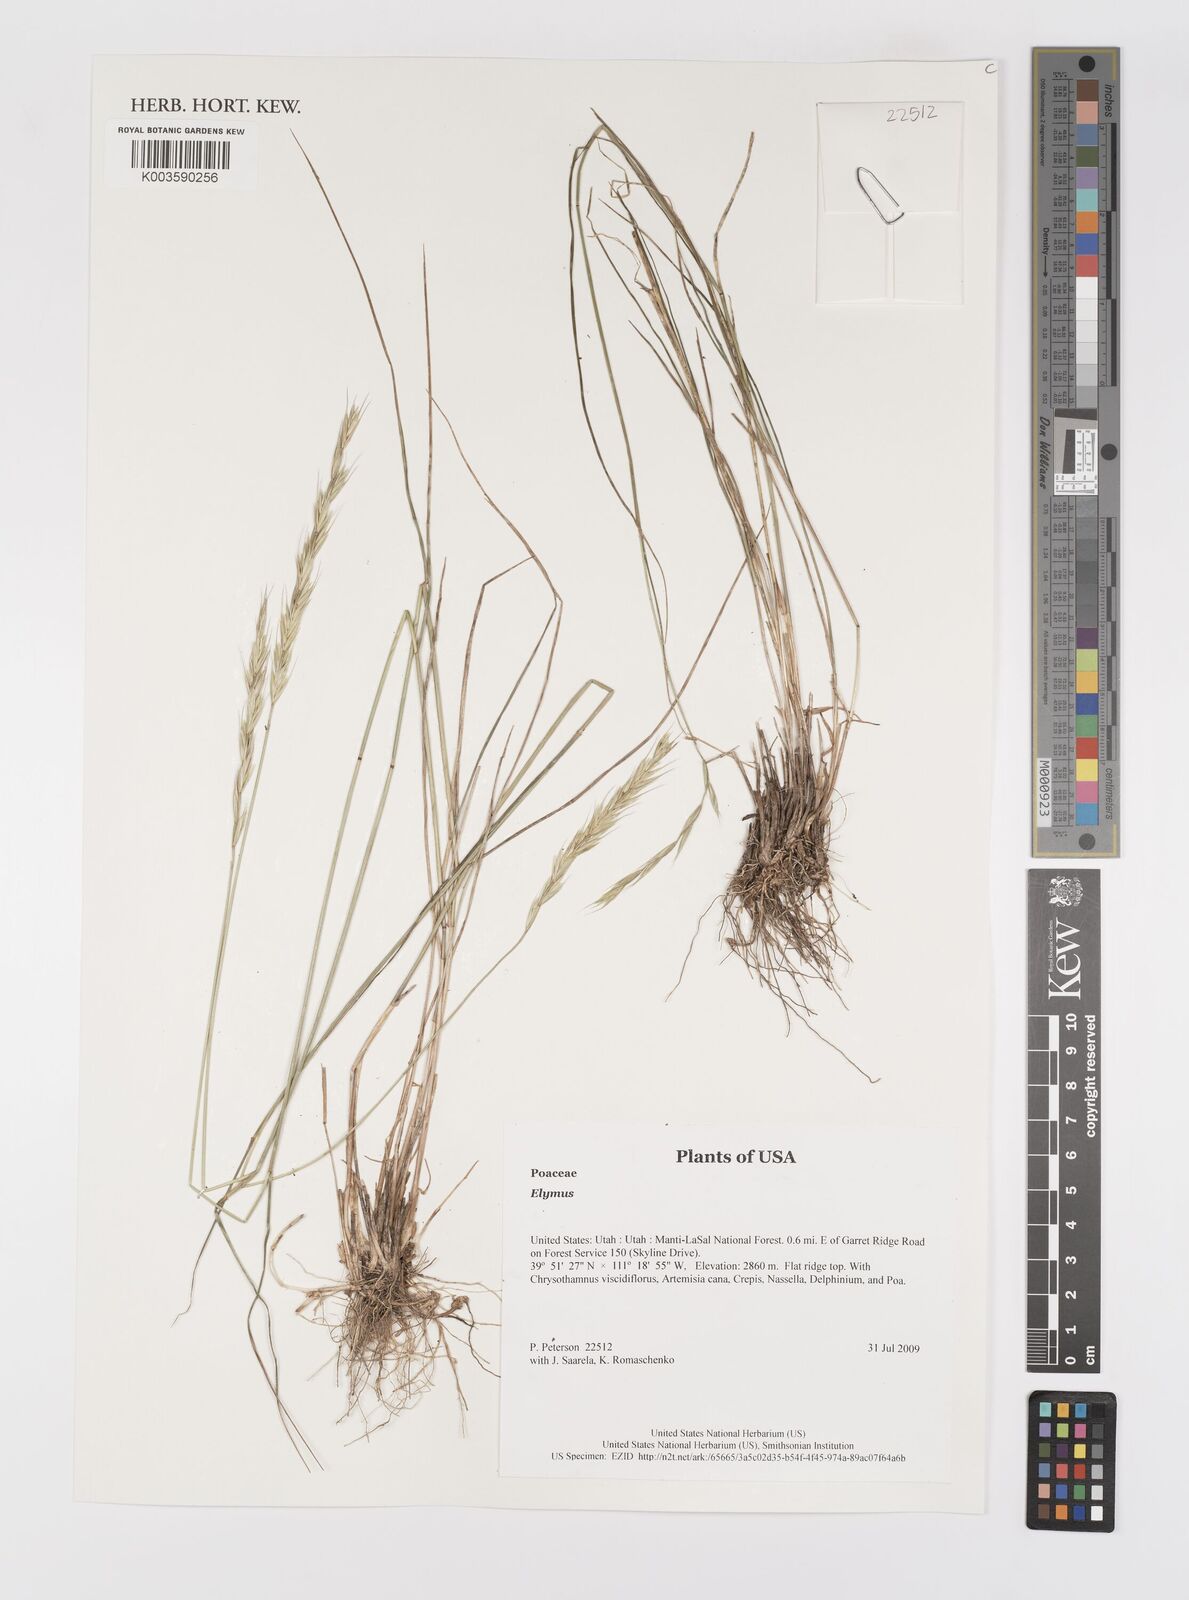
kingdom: Plantae
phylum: Tracheophyta
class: Liliopsida
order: Poales
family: Poaceae
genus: Elymus
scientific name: Elymus
